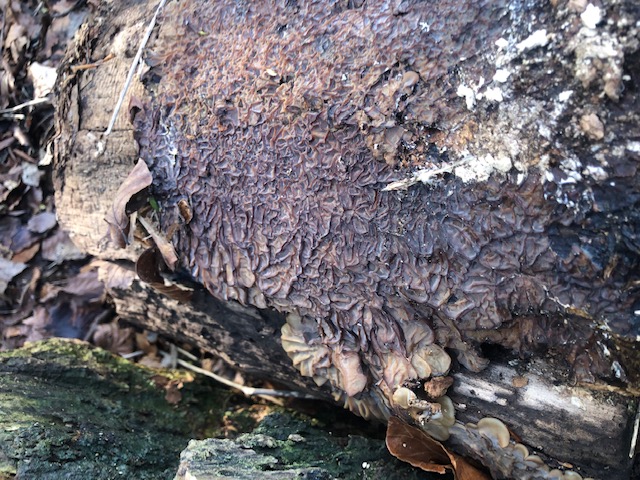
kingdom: Fungi
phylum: Basidiomycota
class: Agaricomycetes
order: Auriculariales
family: Auriculariaceae
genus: Auricularia
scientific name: Auricularia mesenterica
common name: håret judasøre
